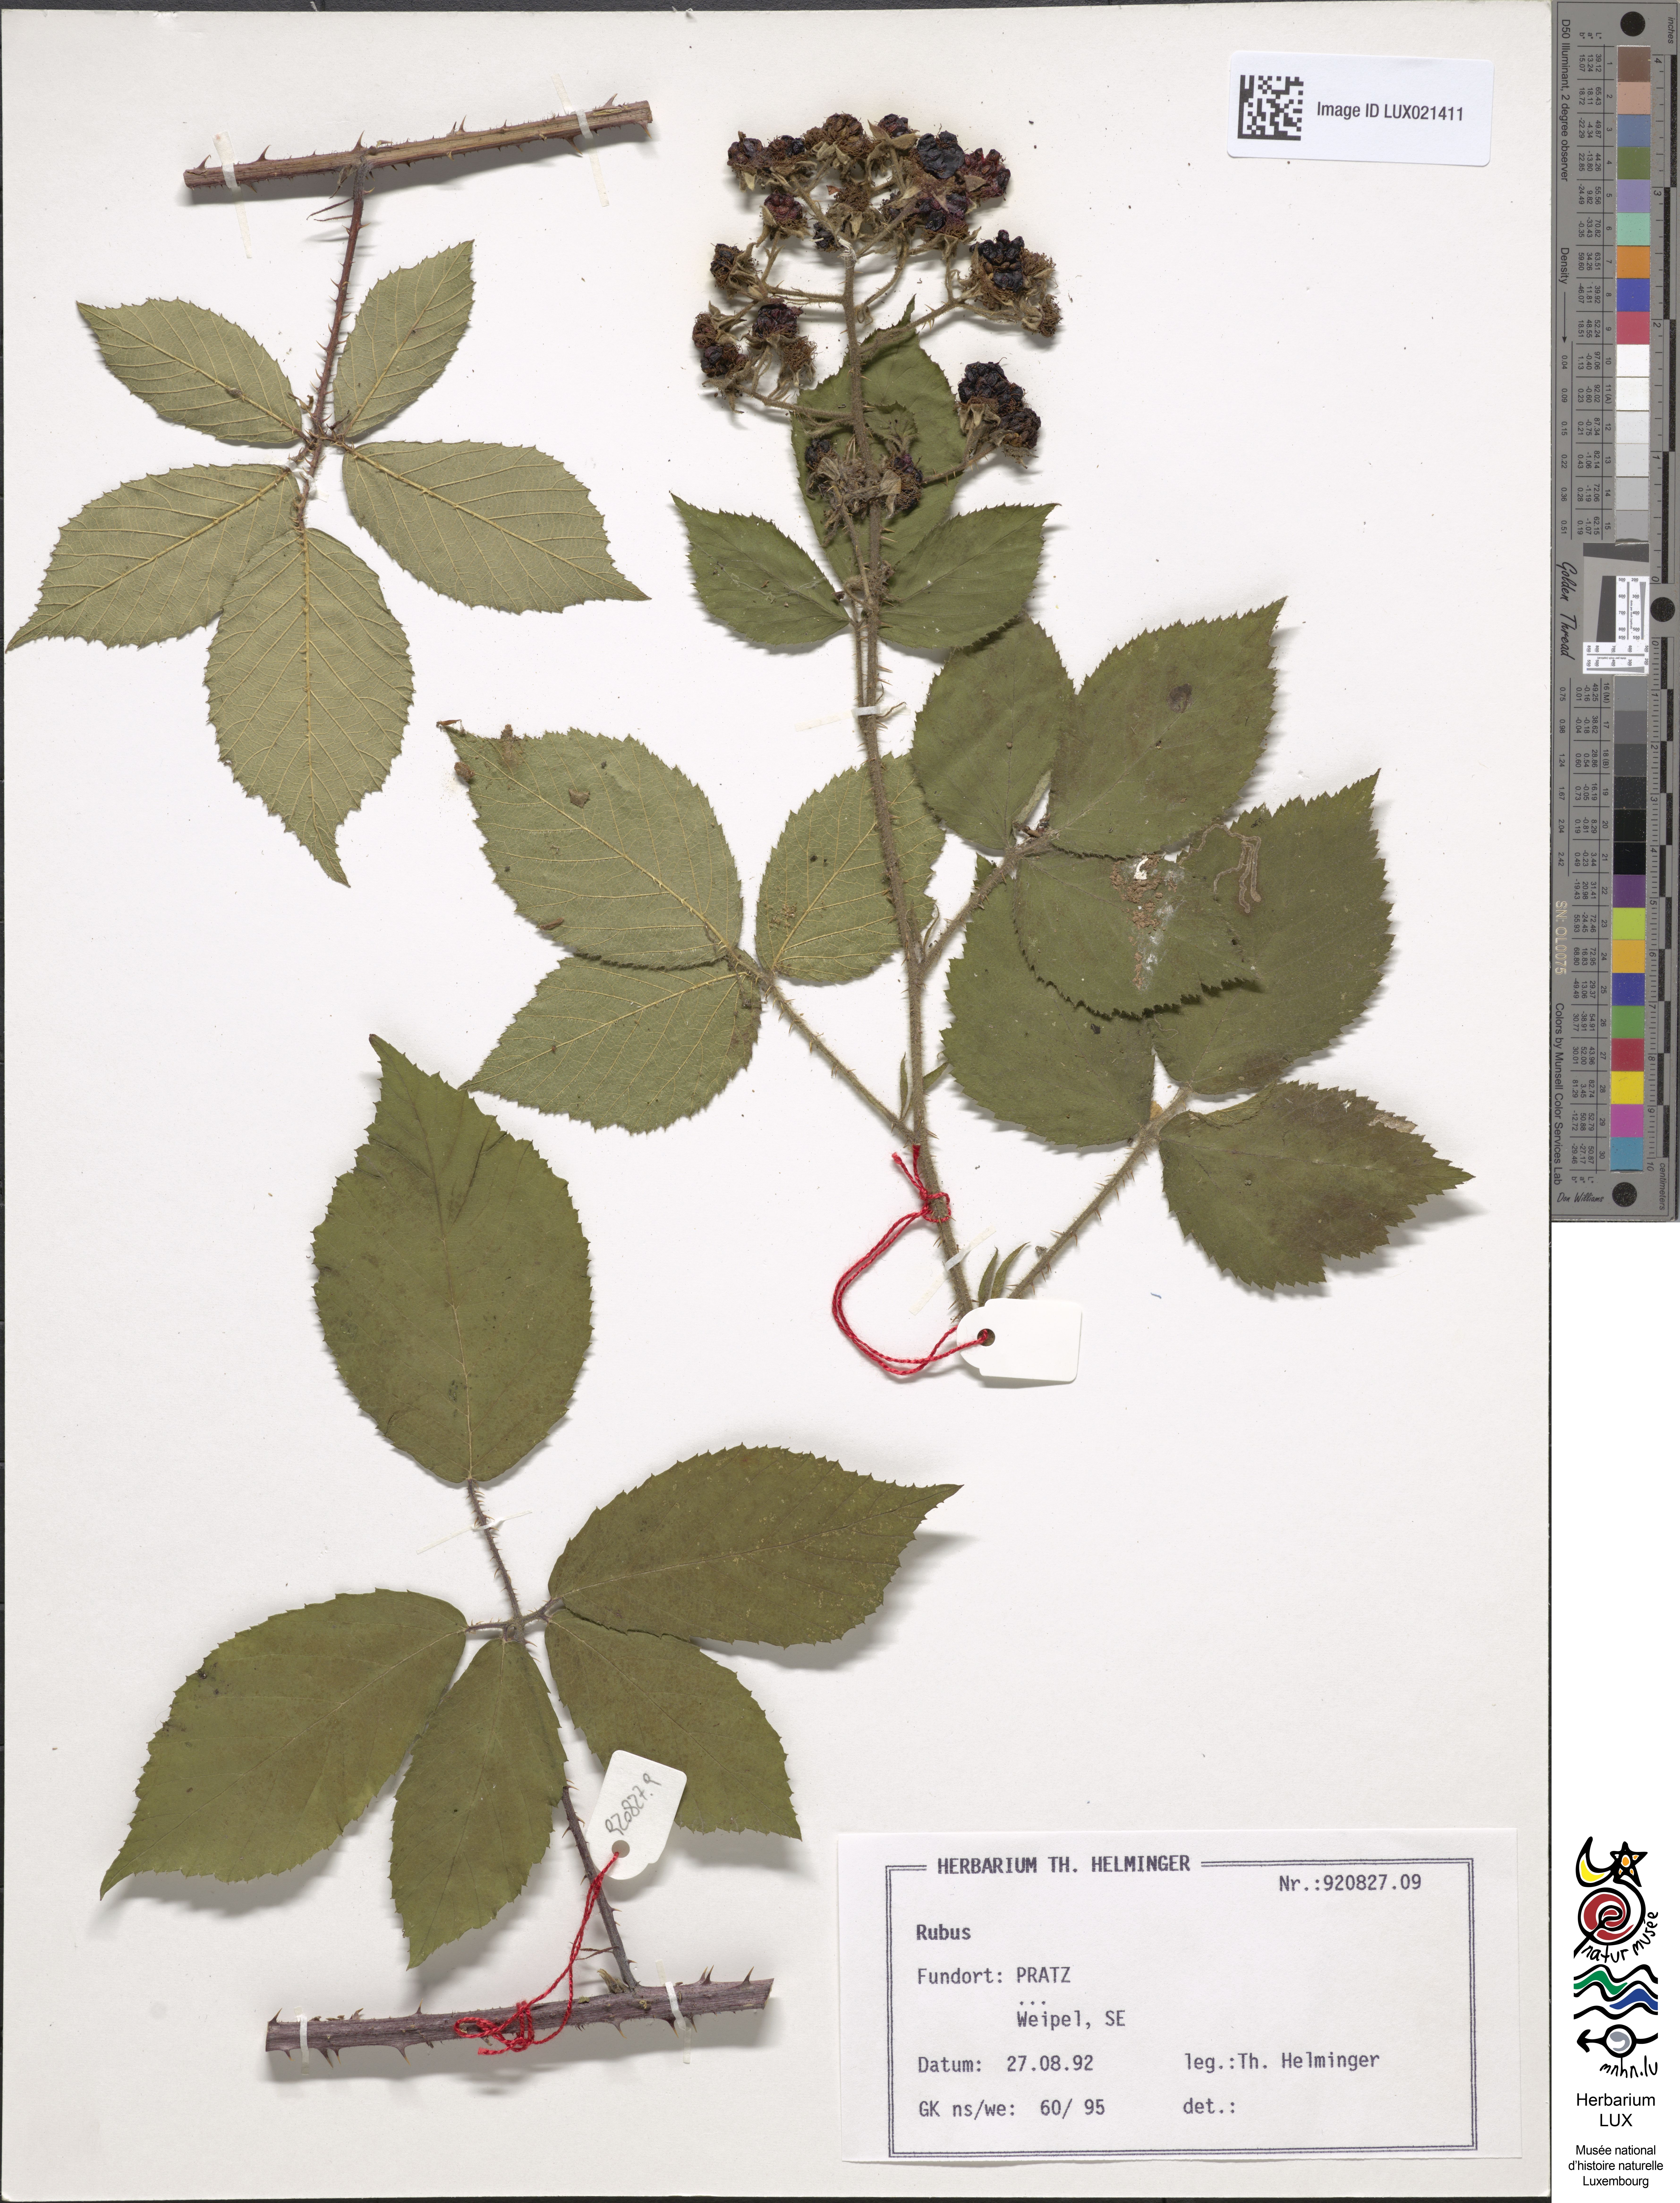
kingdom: Plantae
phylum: Tracheophyta
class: Magnoliopsida
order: Rosales
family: Rosaceae
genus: Rubus
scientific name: Rubus
